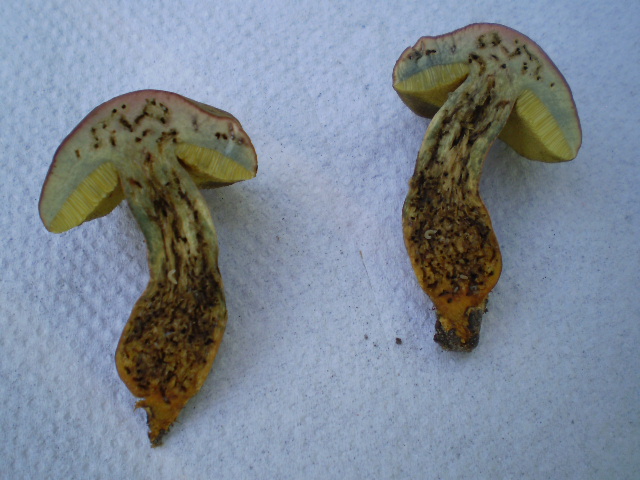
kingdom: Fungi
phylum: Basidiomycota
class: Agaricomycetes
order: Boletales
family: Boletaceae
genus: Hortiboletus
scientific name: Hortiboletus rubellus
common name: blodrød rørhat
